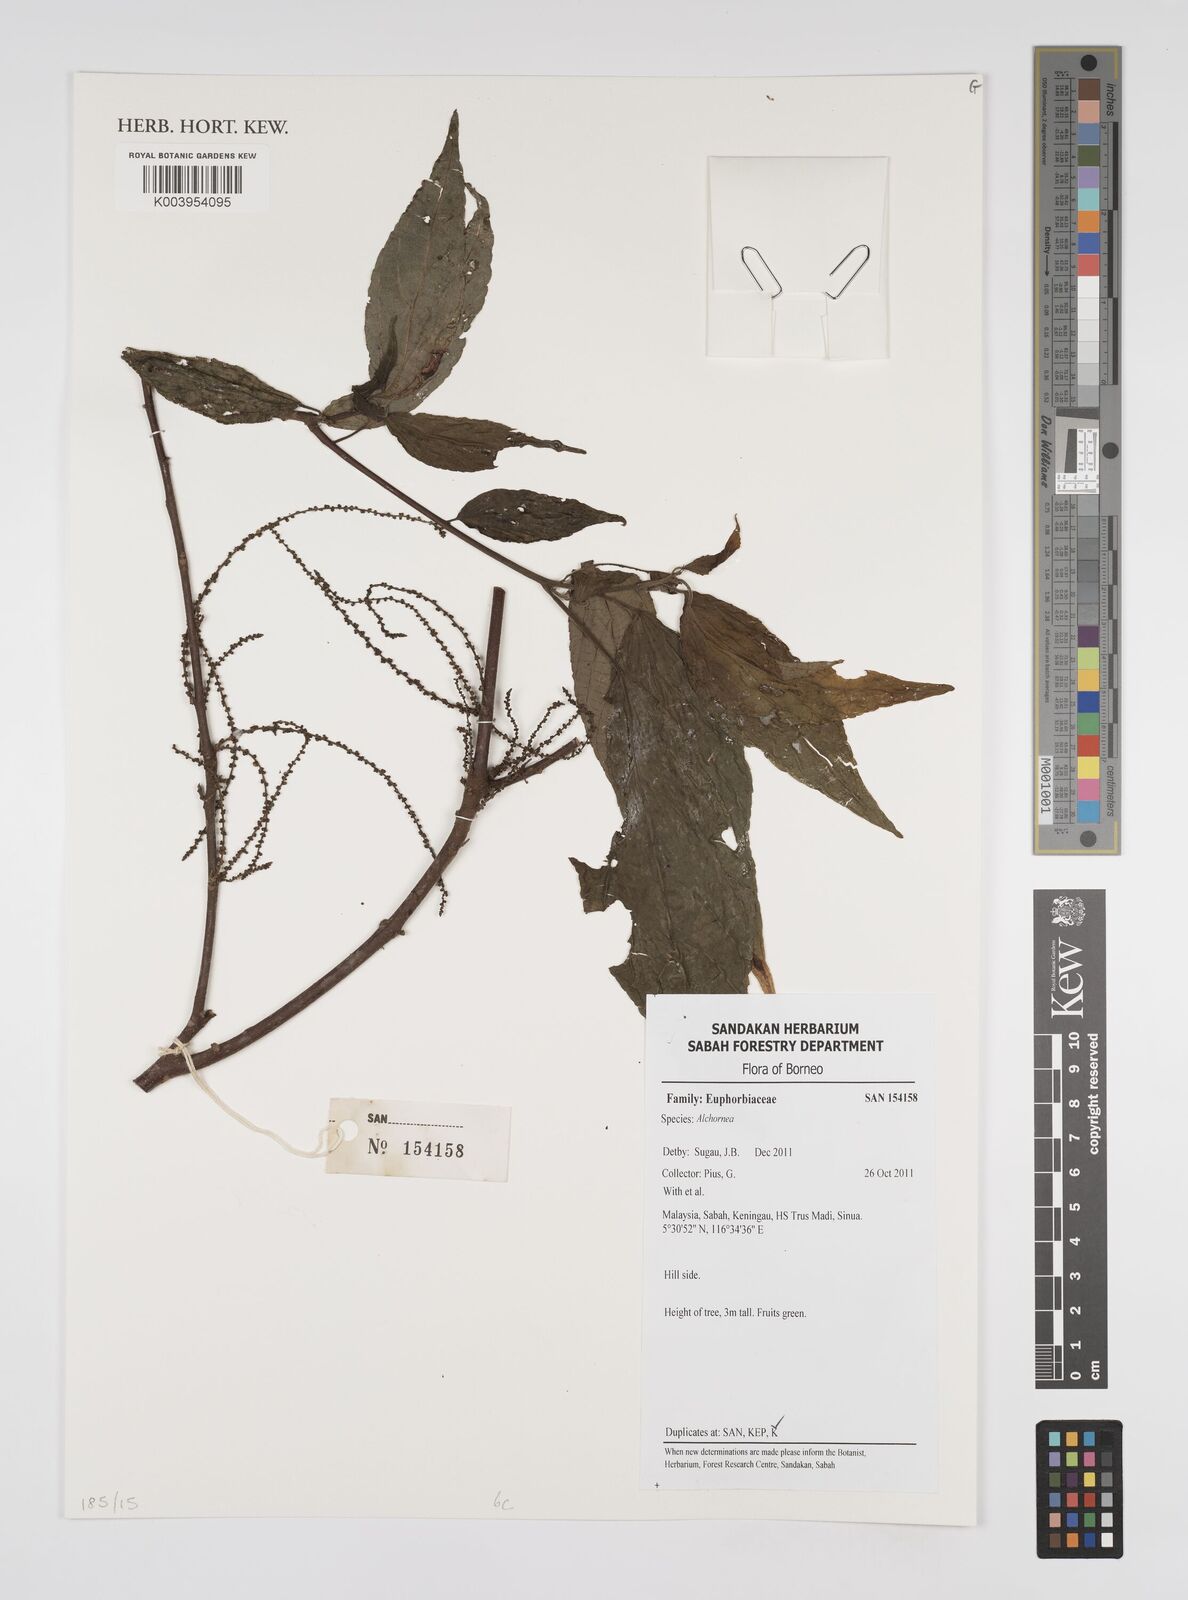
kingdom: Plantae
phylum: Tracheophyta
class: Magnoliopsida
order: Malpighiales
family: Euphorbiaceae
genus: Alchornea
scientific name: Alchornea
